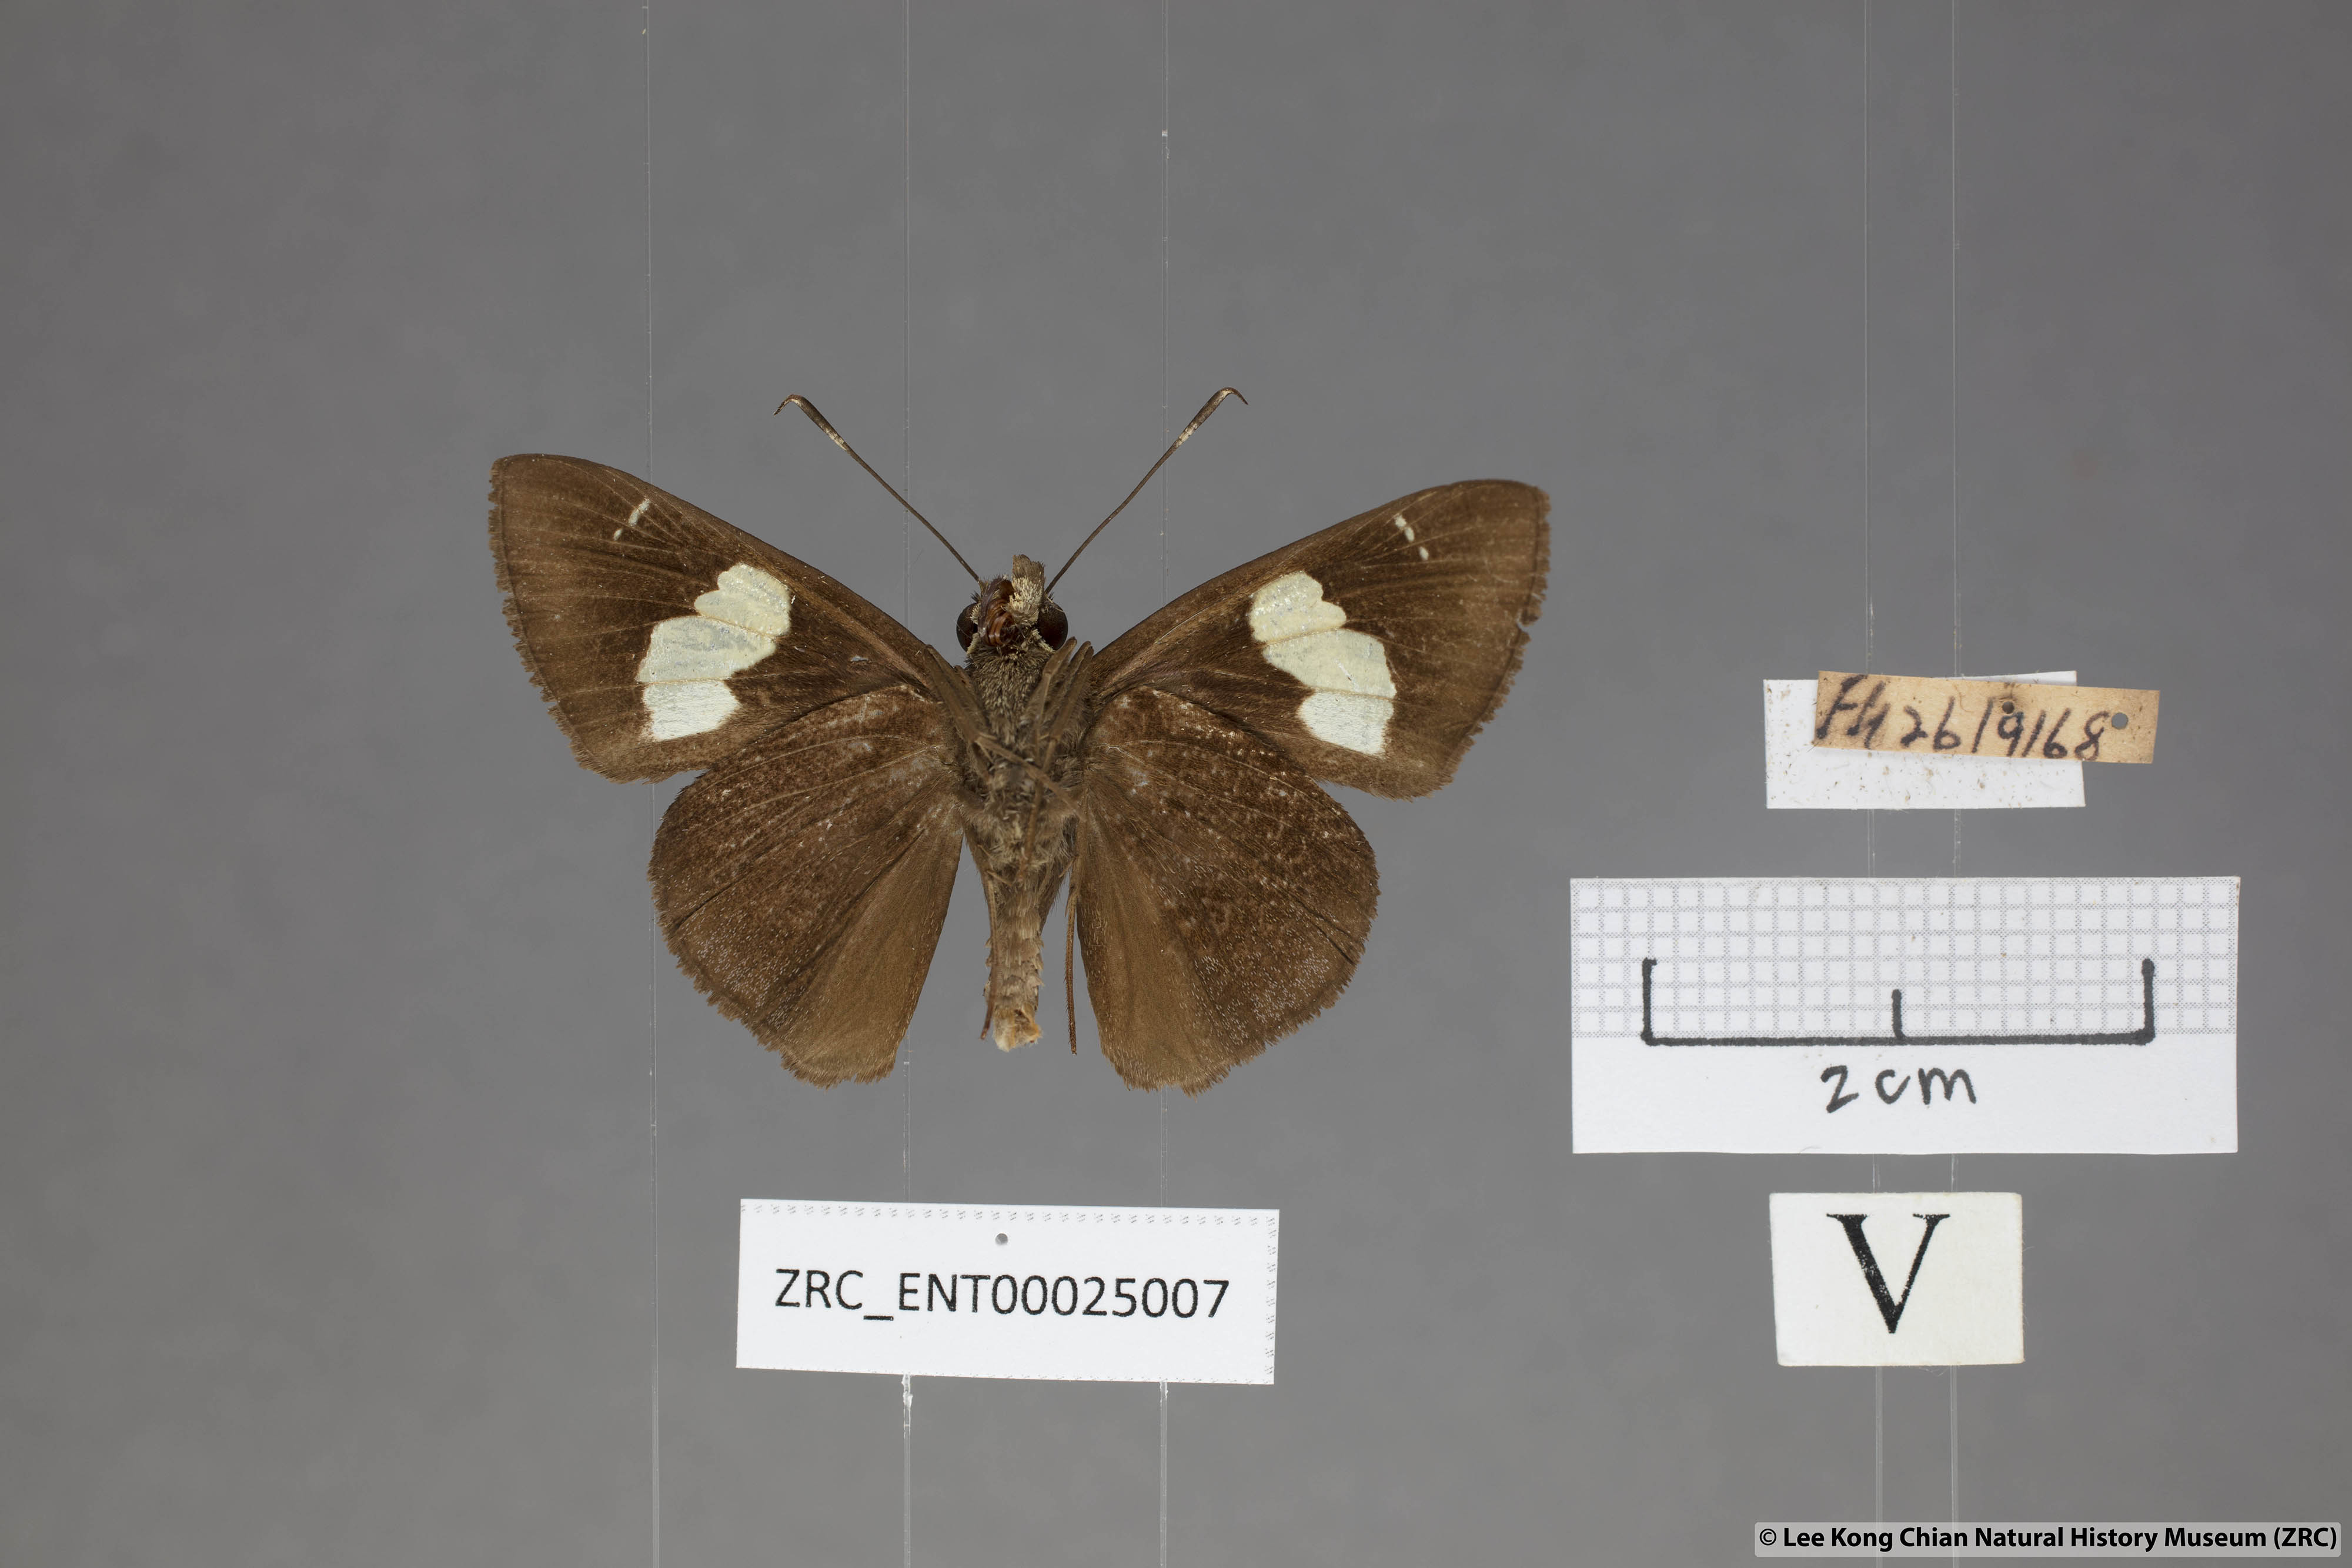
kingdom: Animalia
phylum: Arthropoda
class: Insecta
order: Lepidoptera
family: Hesperiidae
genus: Notocrypta
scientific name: Notocrypta curvifascia
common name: Restricted demon
